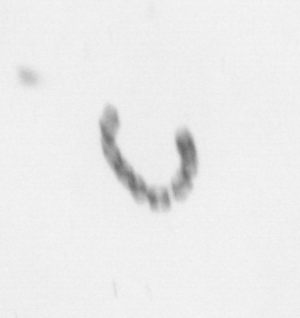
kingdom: Chromista
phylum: Ochrophyta
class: Bacillariophyceae
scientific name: Bacillariophyceae
